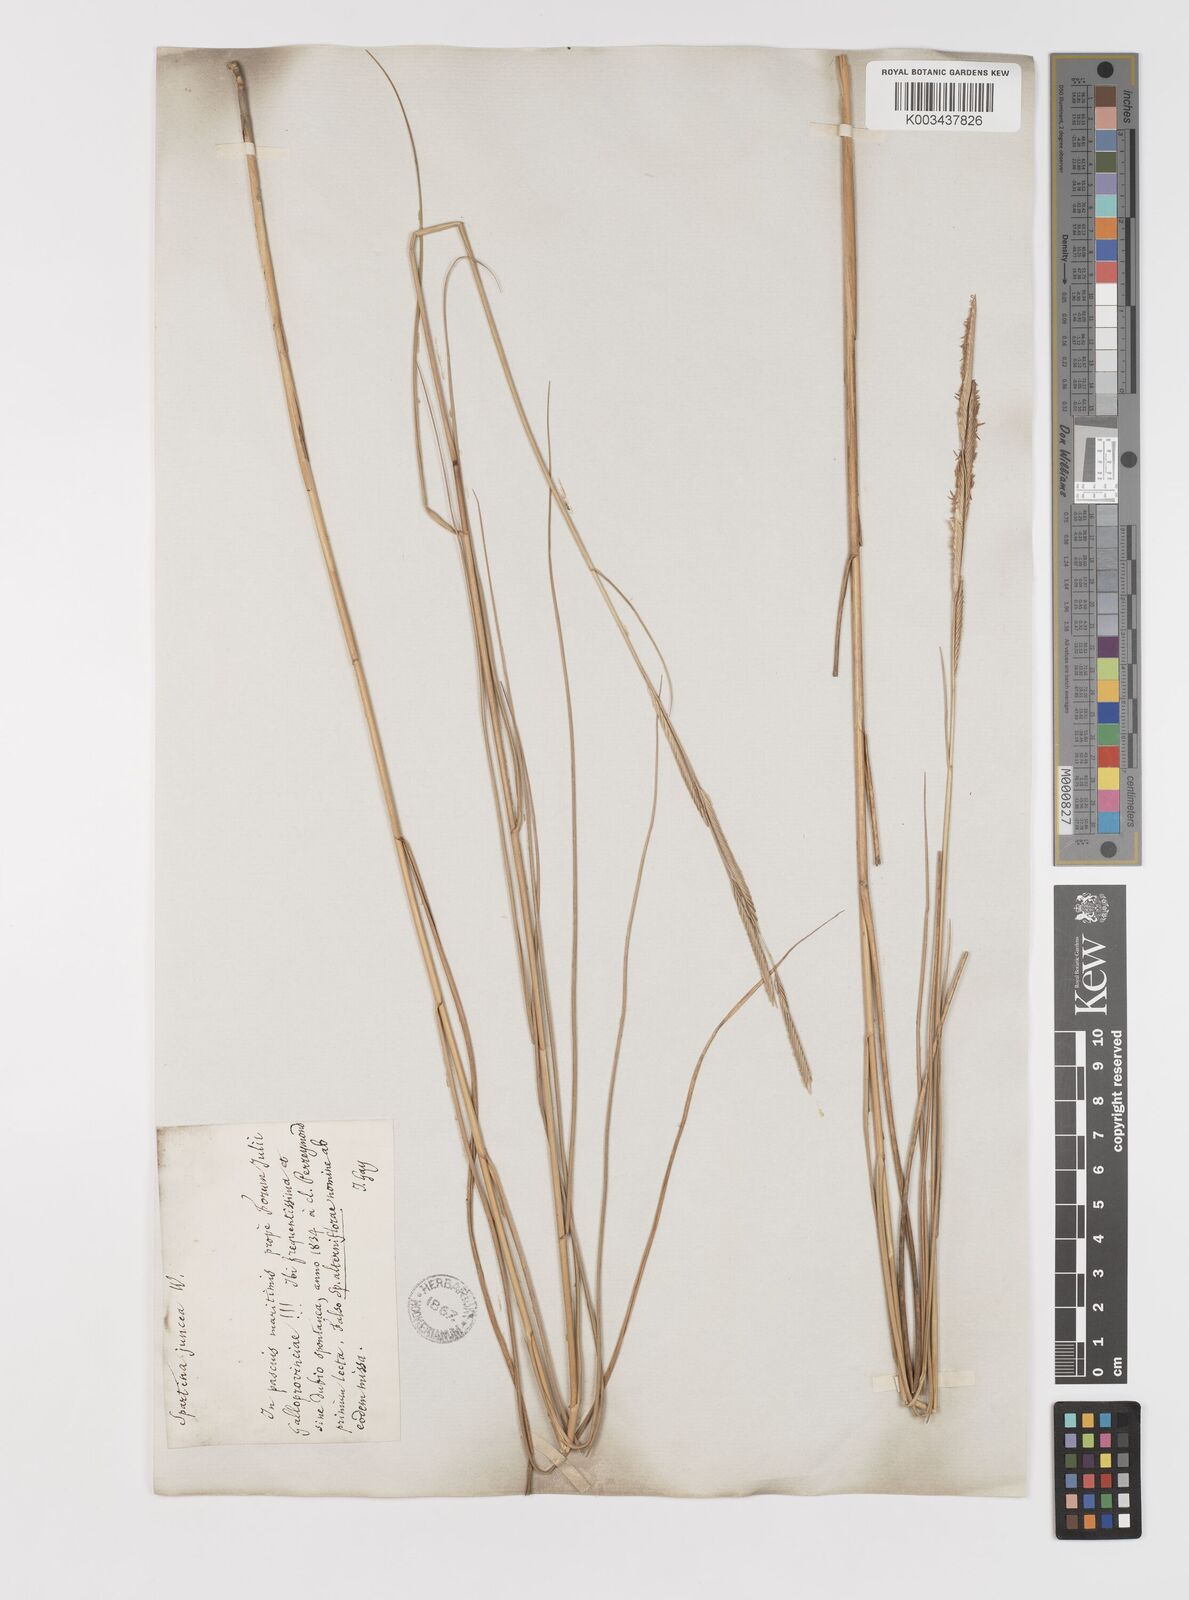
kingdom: Plantae
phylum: Tracheophyta
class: Liliopsida
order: Poales
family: Poaceae
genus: Sporobolus
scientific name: Sporobolus versicolor
